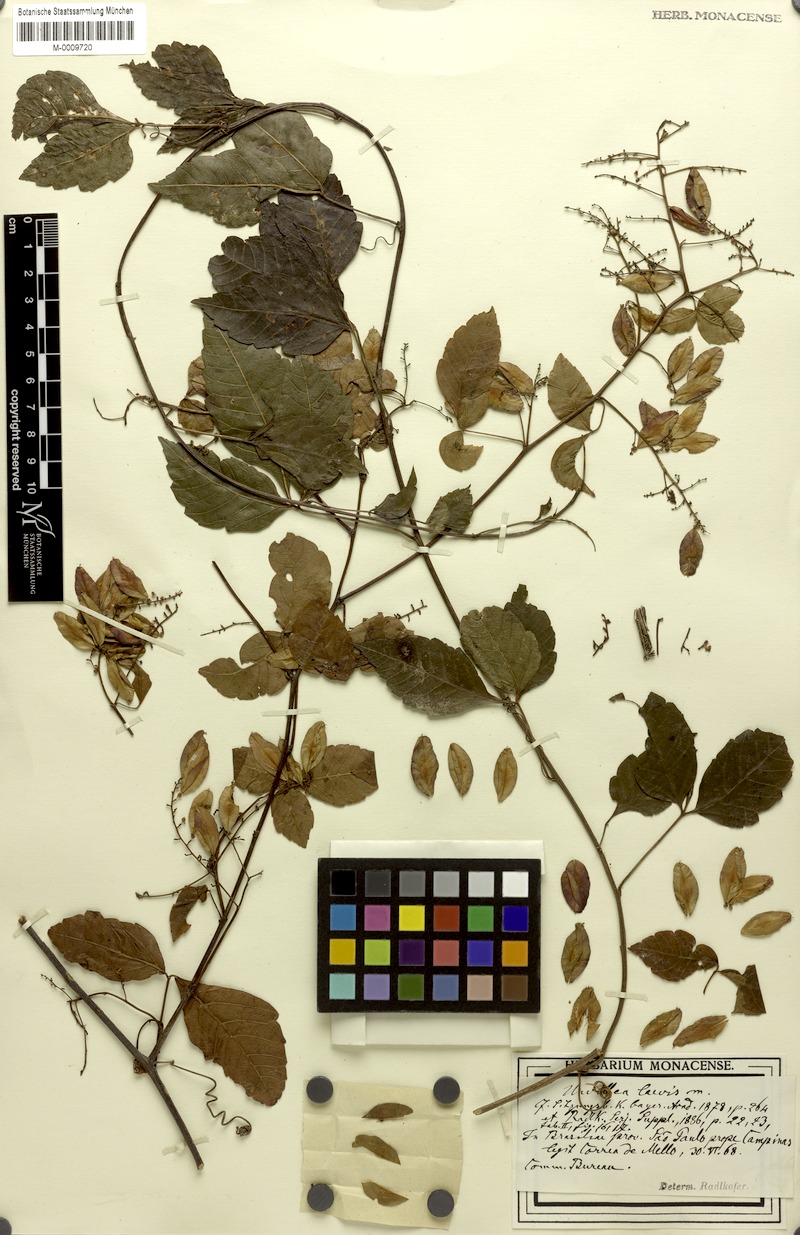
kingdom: Plantae
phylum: Tracheophyta
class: Magnoliopsida
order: Sapindales
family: Sapindaceae
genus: Urvillea
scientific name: Urvillea laevis
